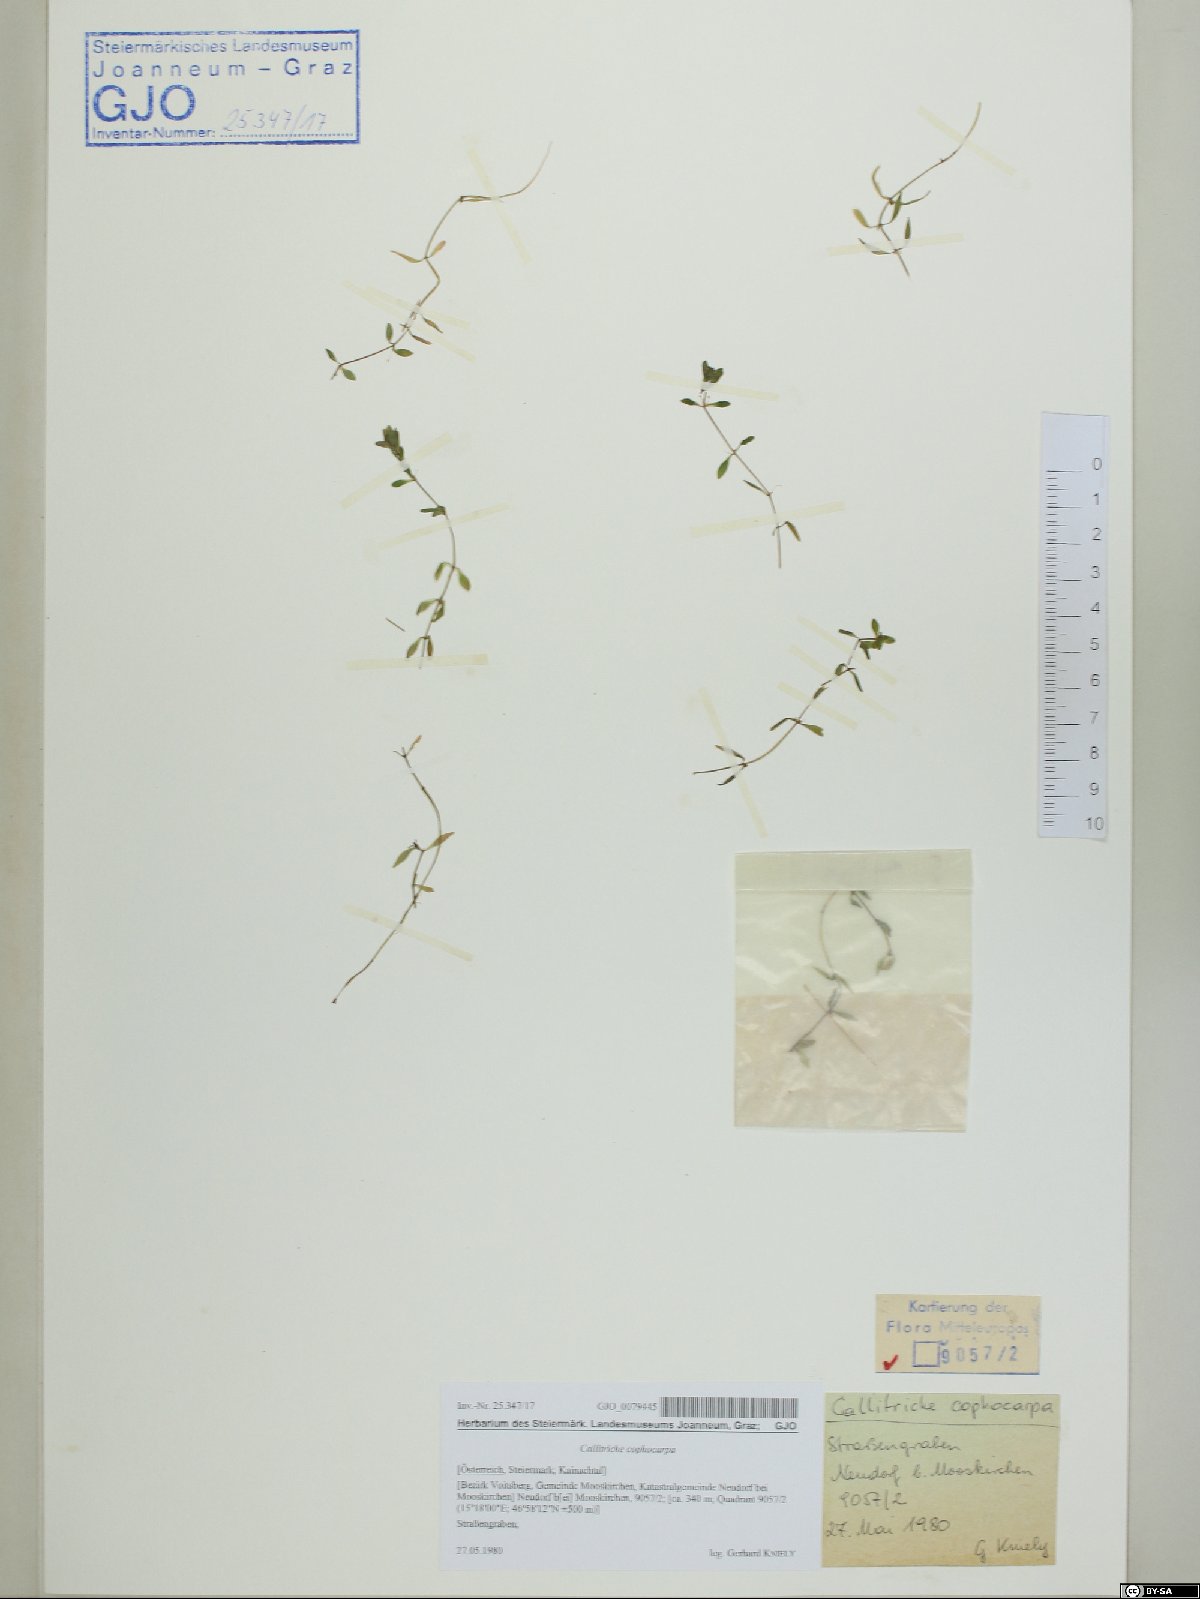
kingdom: Plantae
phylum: Tracheophyta
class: Magnoliopsida
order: Lamiales
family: Plantaginaceae
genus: Callitriche
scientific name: Callitriche cophocarpa
